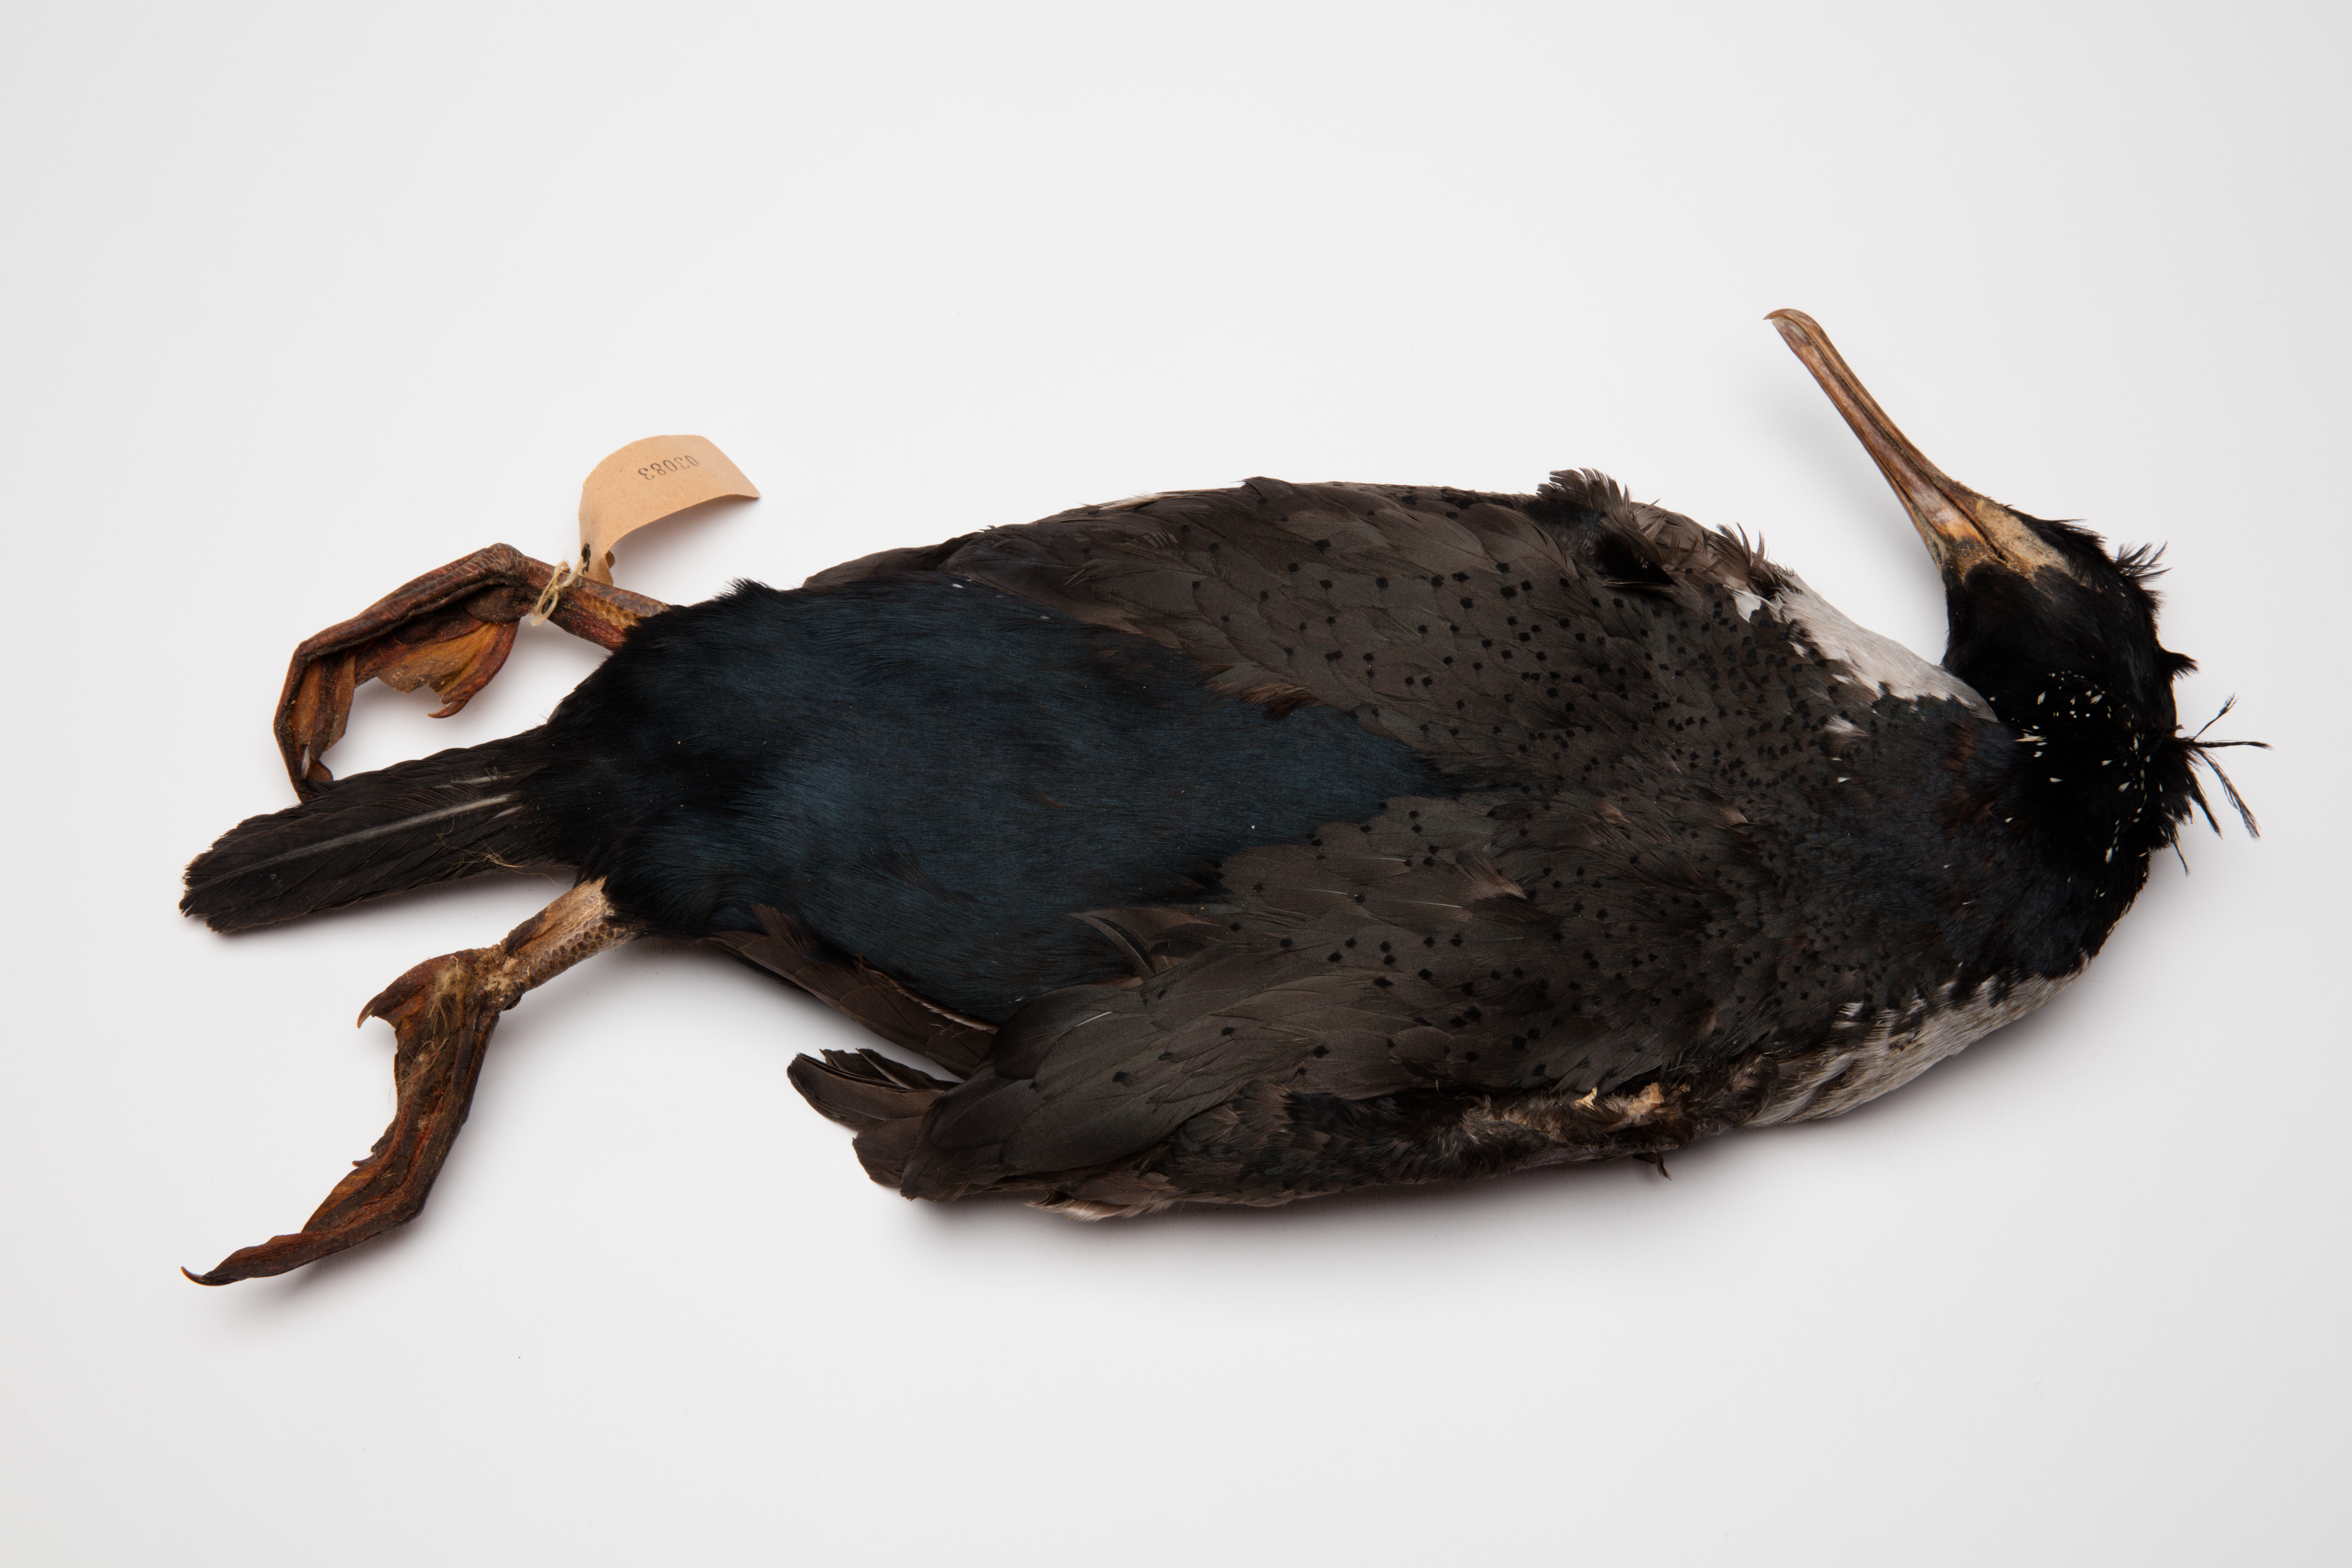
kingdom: Animalia
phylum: Chordata
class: Aves
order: Suliformes
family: Phalacrocoracidae
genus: Phalacrocorax
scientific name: Phalacrocorax featherstoni
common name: Pitt shag
